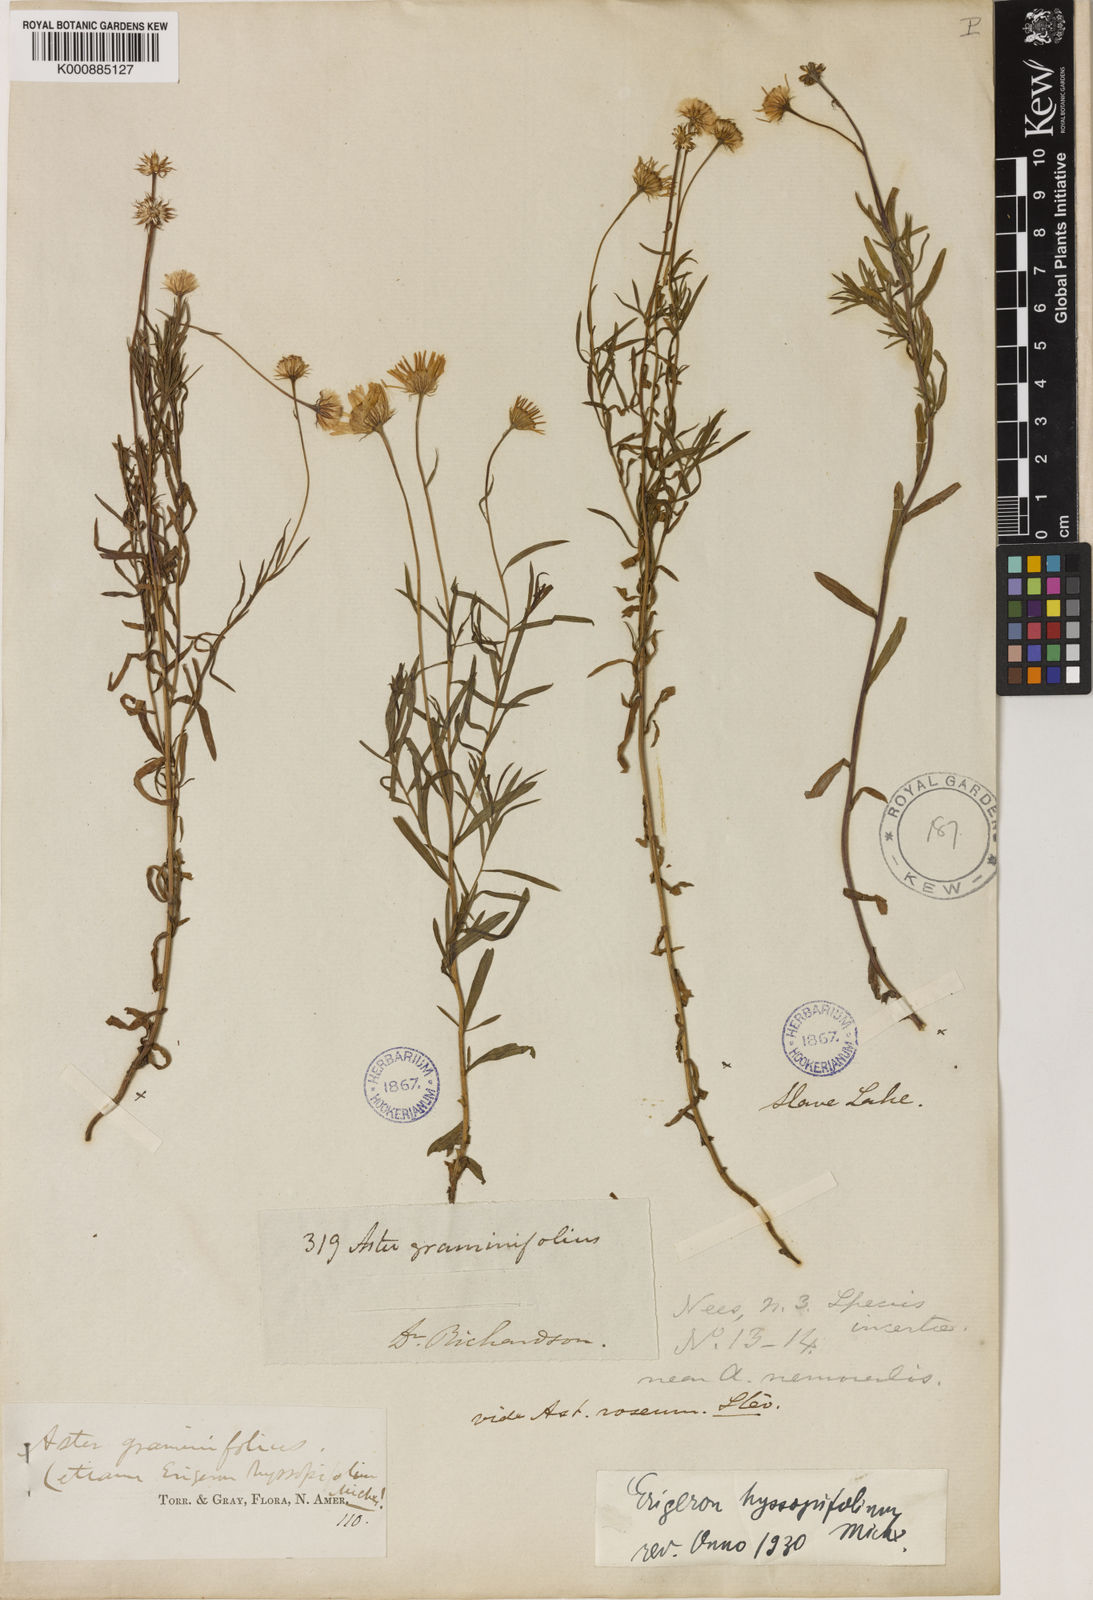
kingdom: Plantae
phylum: Tracheophyta
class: Magnoliopsida
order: Asterales
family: Asteraceae
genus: Erigeron
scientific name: Erigeron hyssopifolius
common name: Daisy fleabane
